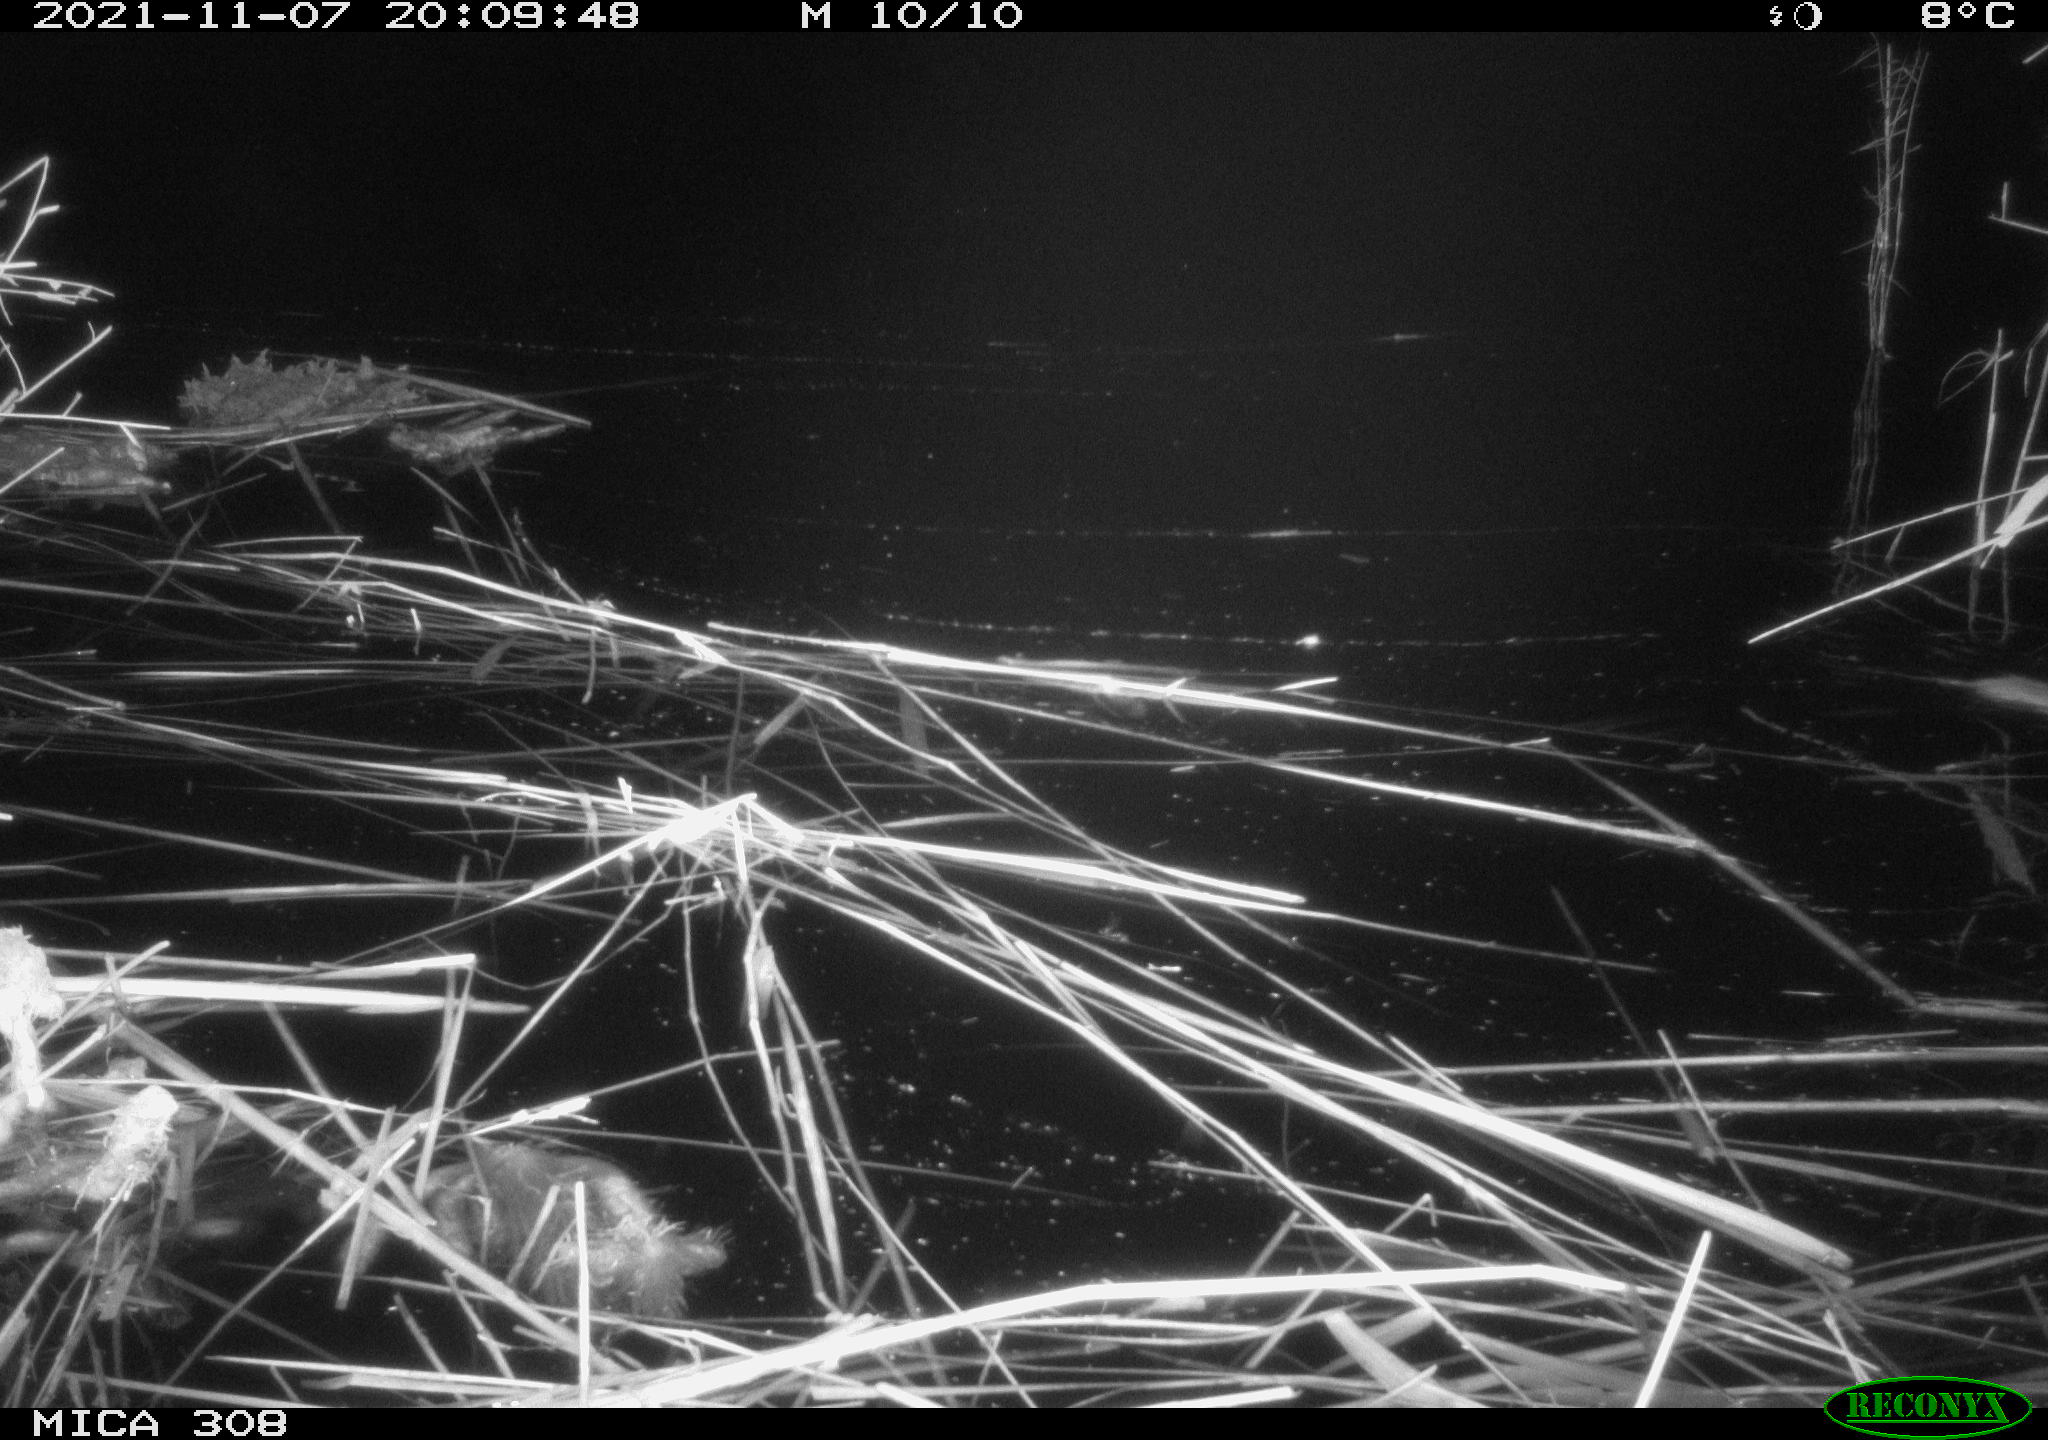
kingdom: Animalia
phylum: Chordata
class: Mammalia
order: Rodentia
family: Muridae
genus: Rattus
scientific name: Rattus norvegicus
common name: Brown rat
